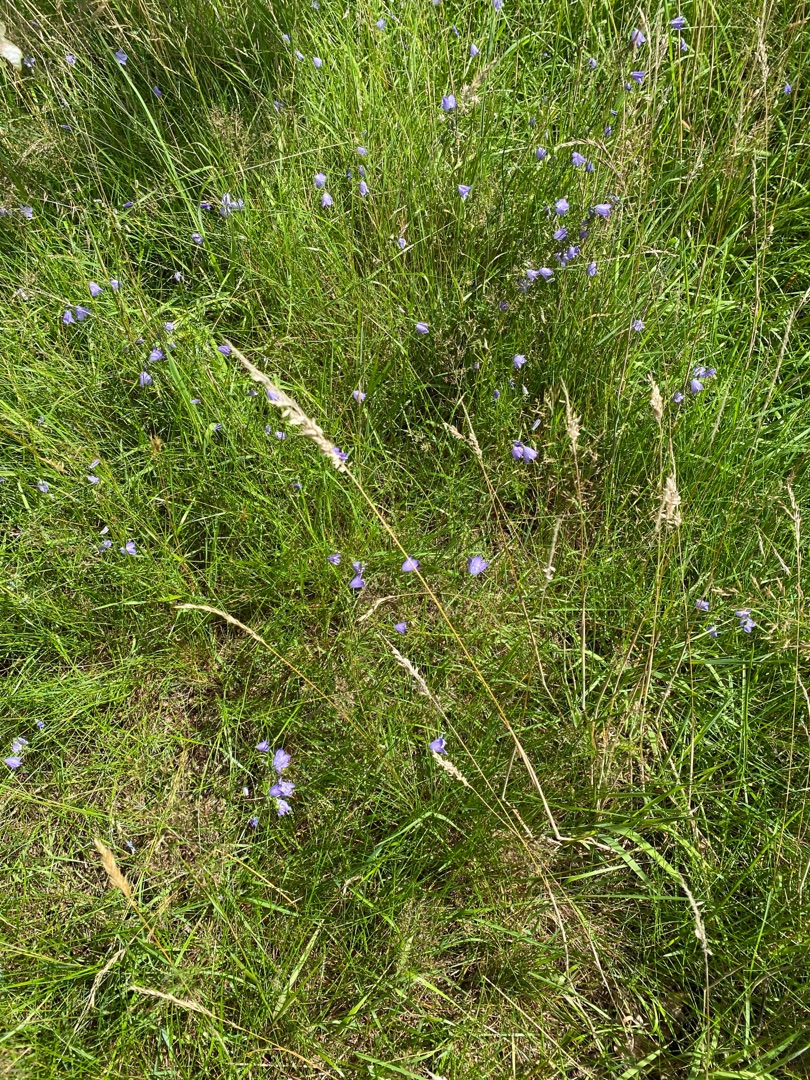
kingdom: Plantae
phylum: Tracheophyta
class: Magnoliopsida
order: Asterales
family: Campanulaceae
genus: Campanula
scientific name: Campanula rotundifolia
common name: Liden klokke
